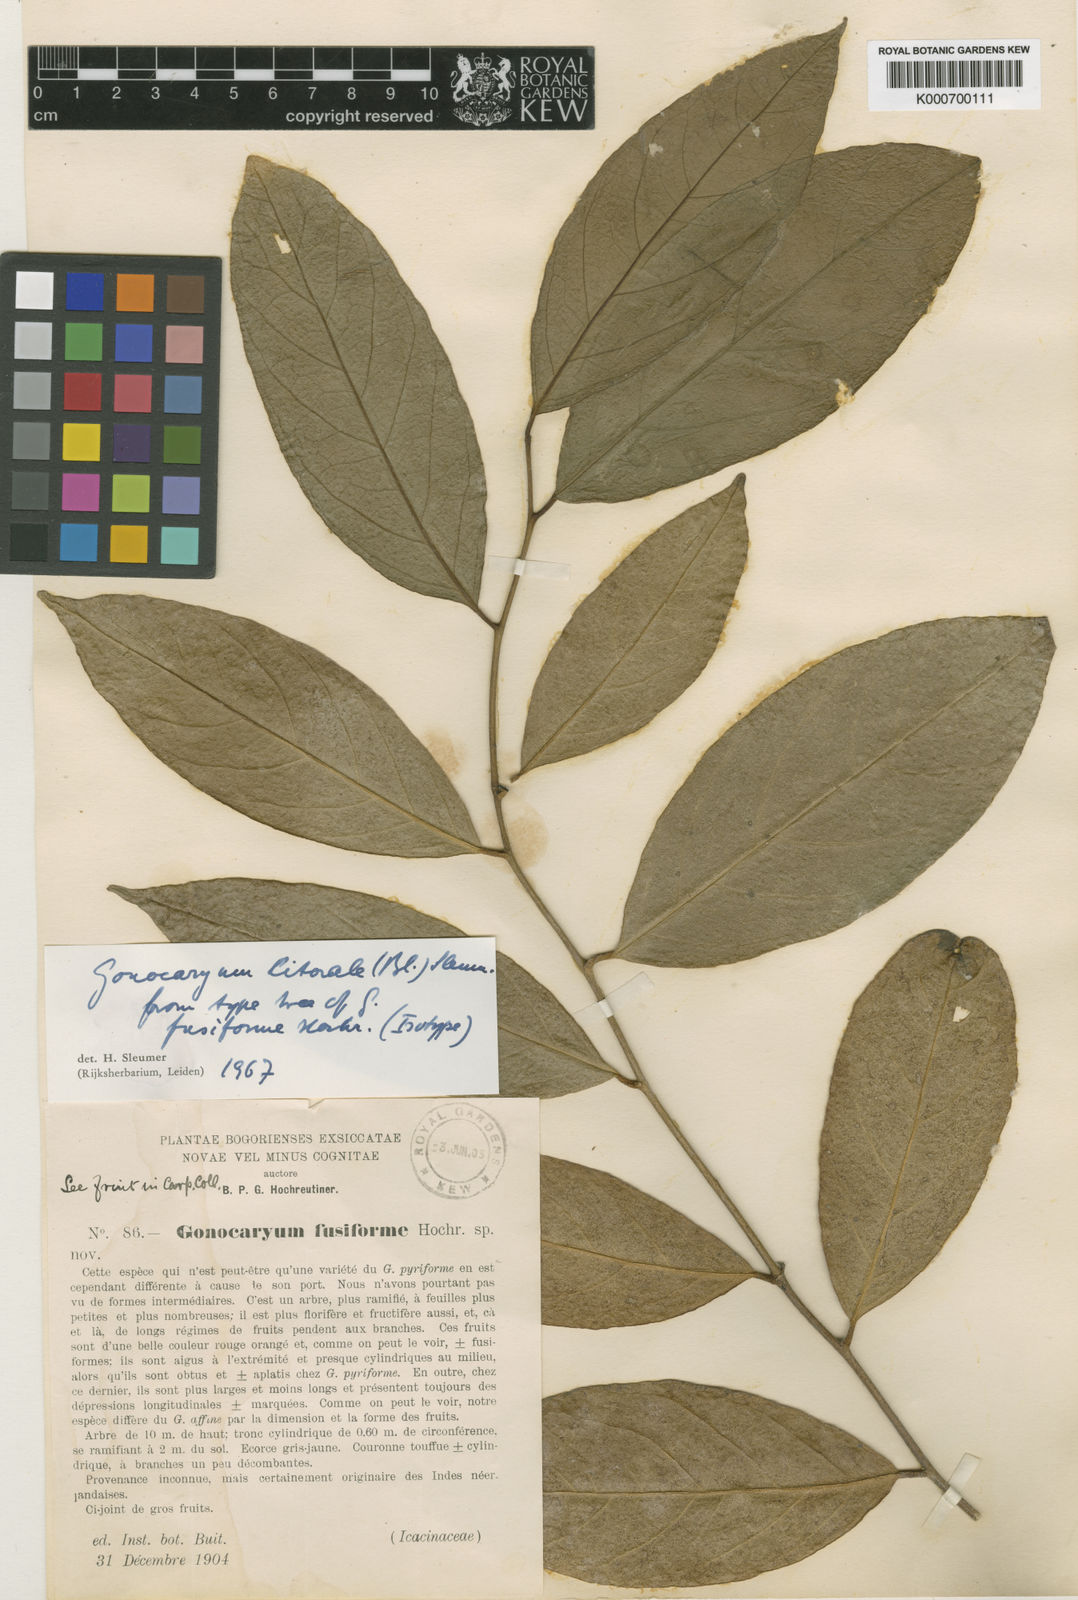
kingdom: Plantae
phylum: Tracheophyta
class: Magnoliopsida
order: Cardiopteridales
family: Cardiopteridaceae
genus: Gonocaryum
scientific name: Gonocaryum litorale
